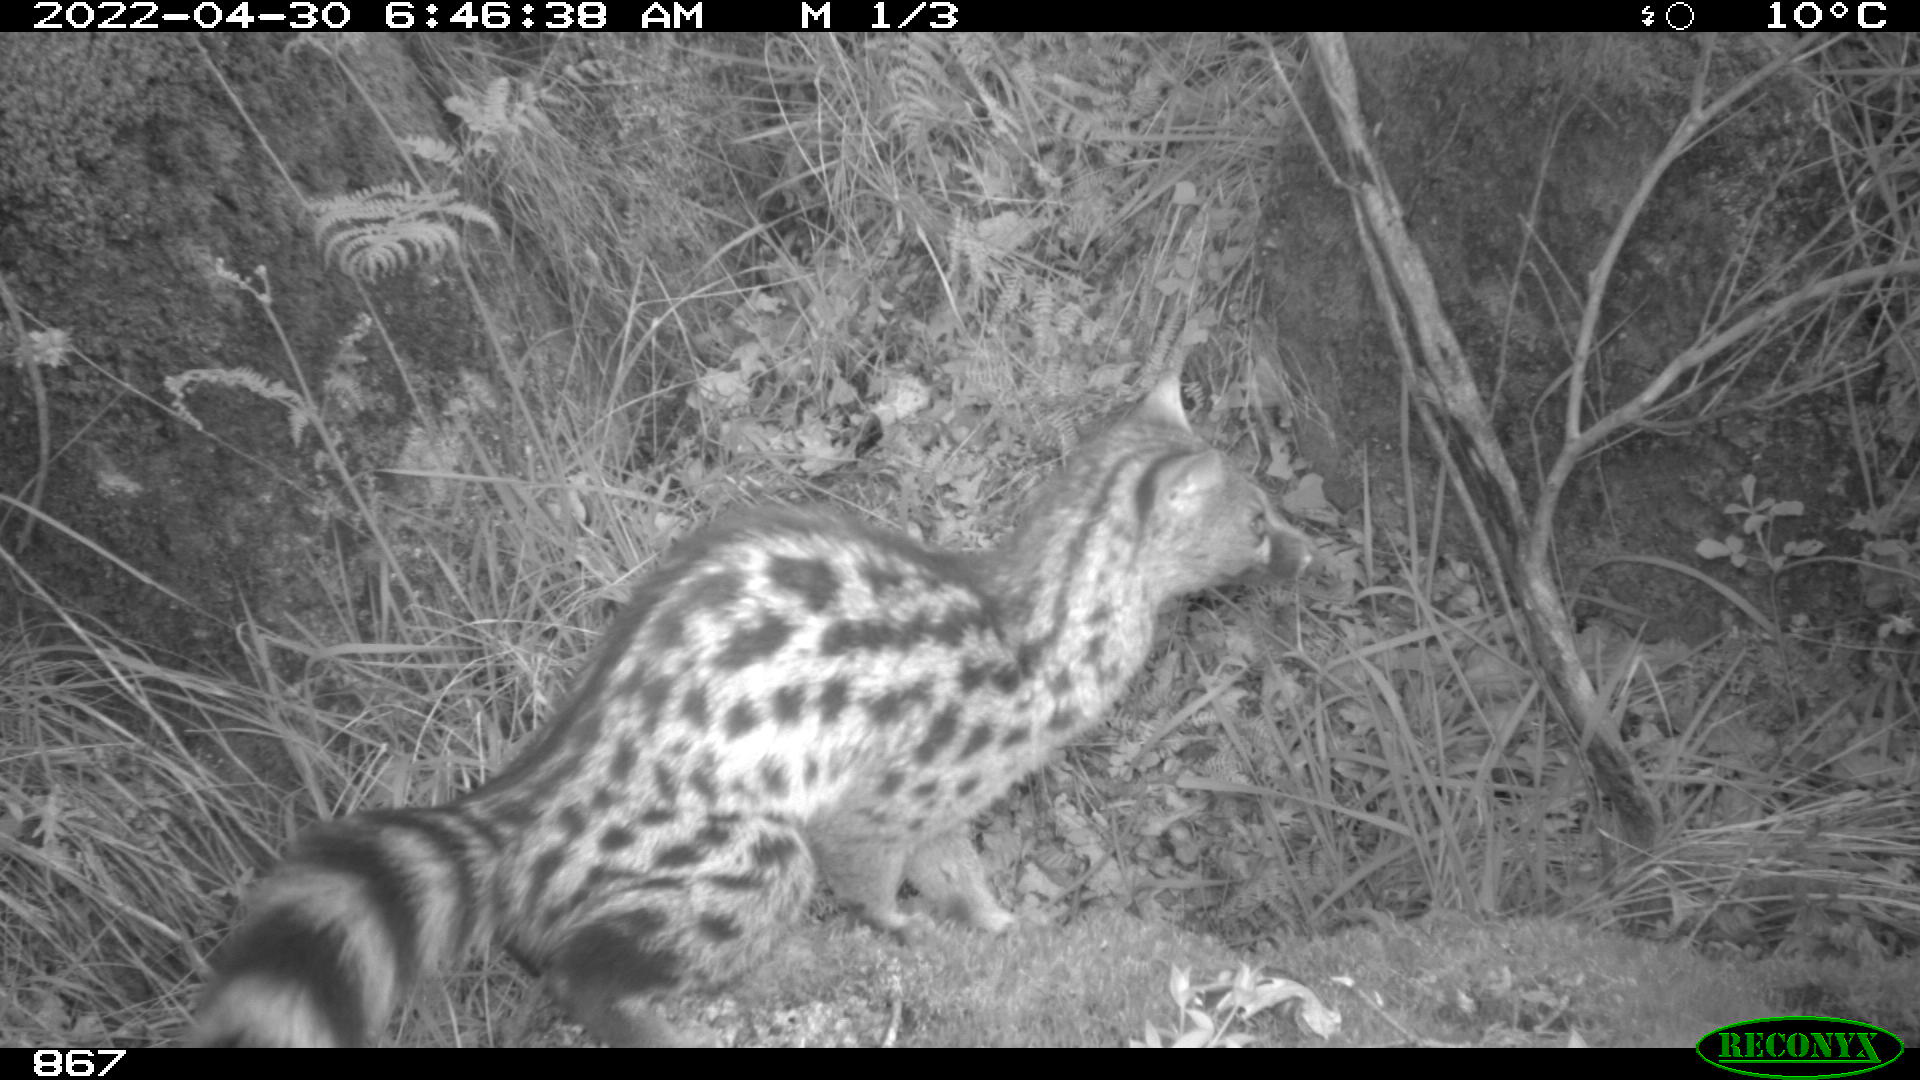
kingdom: Animalia
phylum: Chordata
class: Mammalia
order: Carnivora
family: Viverridae
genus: Genetta
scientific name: Genetta genetta
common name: Common genet
